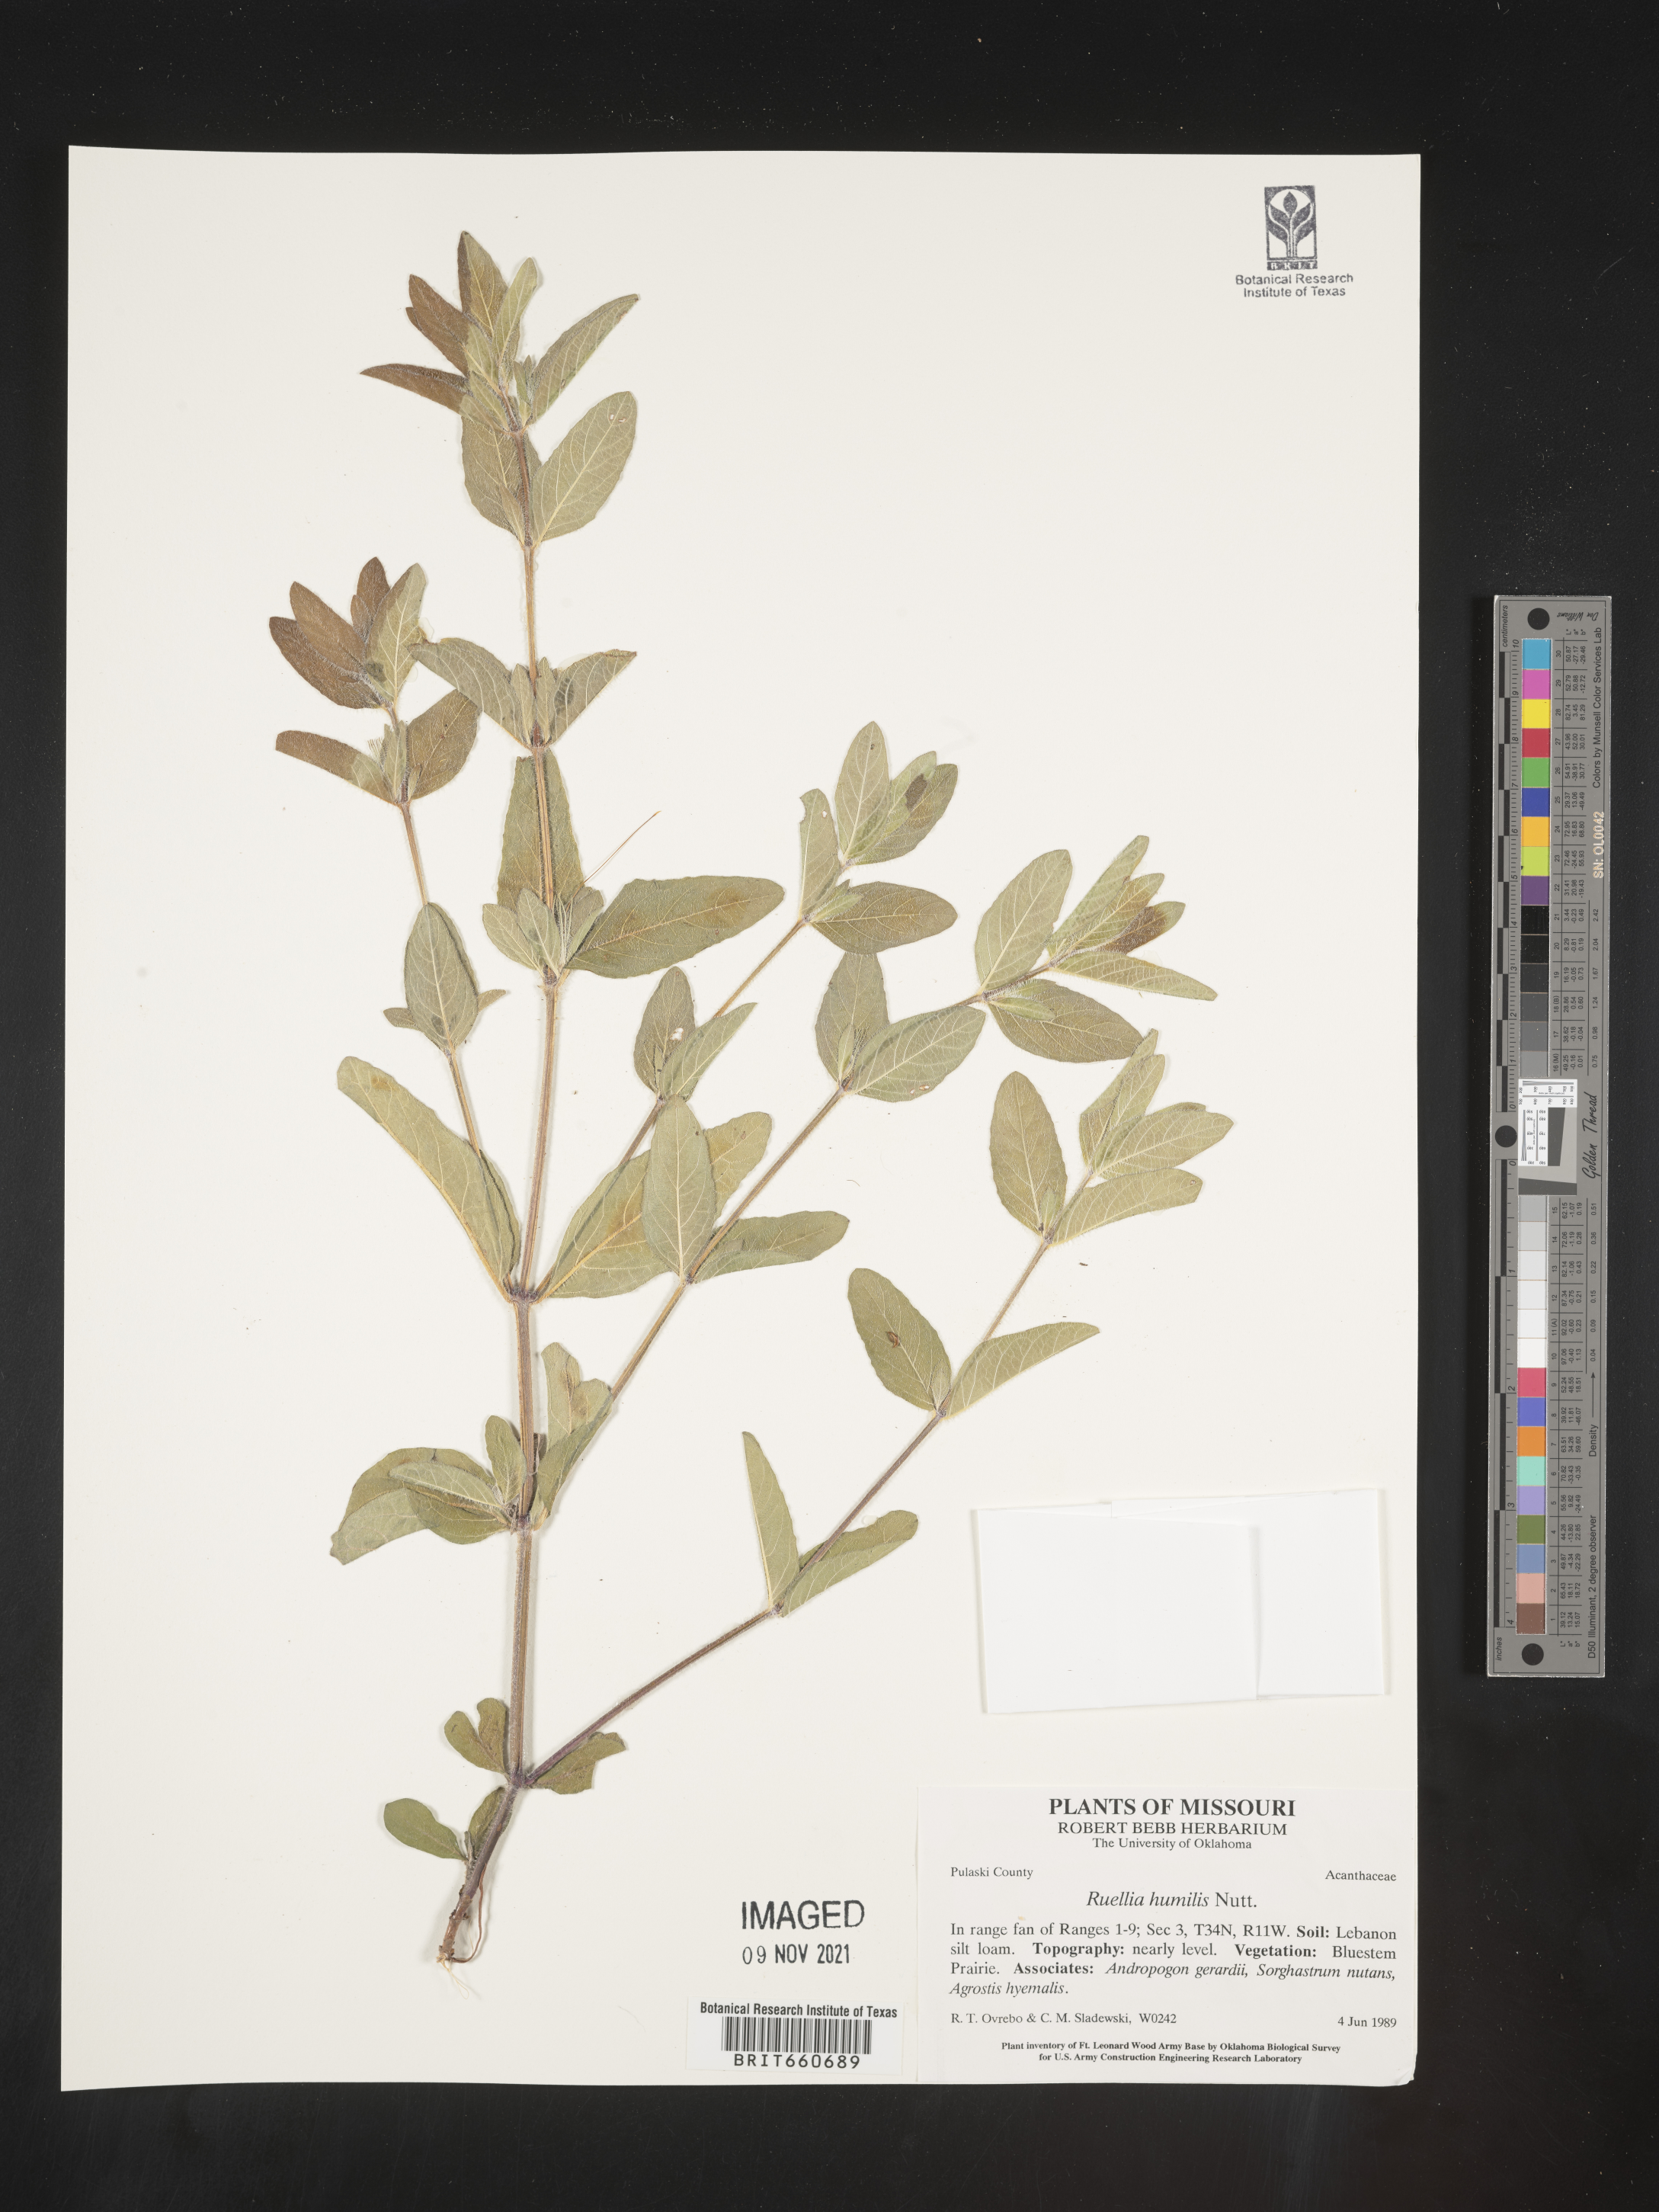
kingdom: Plantae
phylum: Tracheophyta
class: Magnoliopsida
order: Lamiales
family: Acanthaceae
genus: Ruellia
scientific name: Ruellia humilis
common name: Fringe-leaf ruellia
